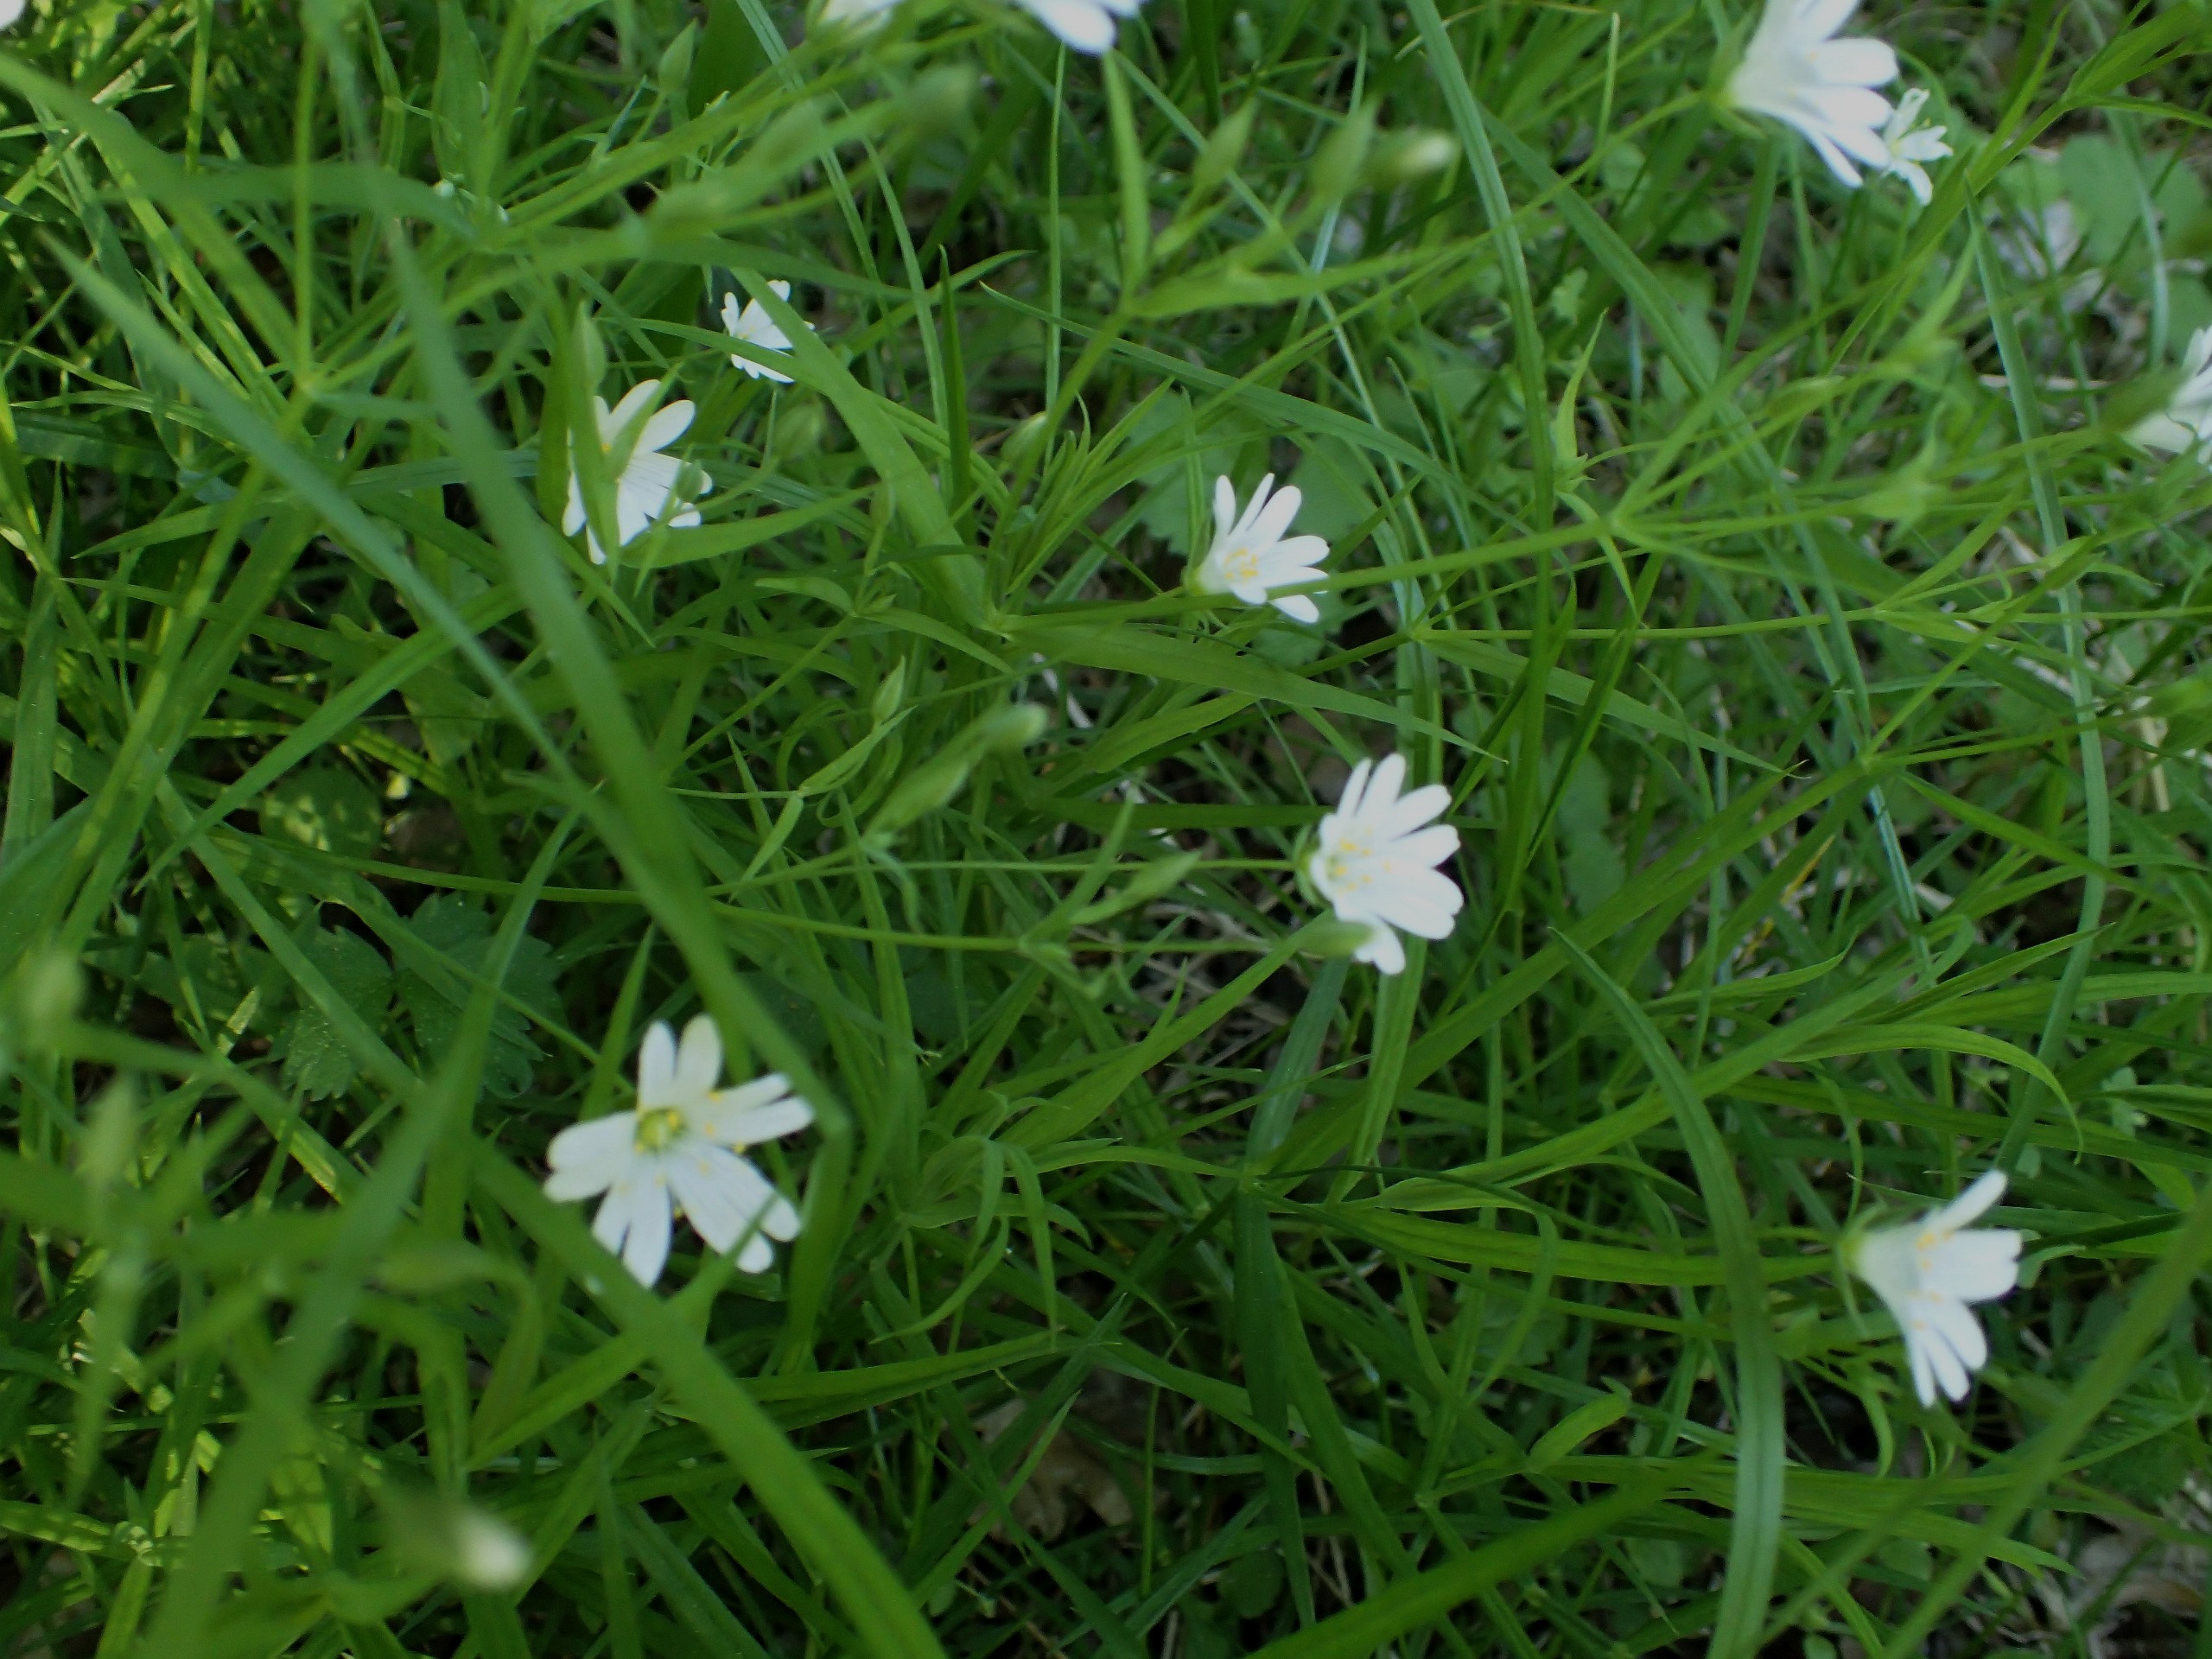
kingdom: Plantae
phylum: Tracheophyta
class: Magnoliopsida
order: Caryophyllales
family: Caryophyllaceae
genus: Rabelera
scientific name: Rabelera holostea
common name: Stor fladstjerne
